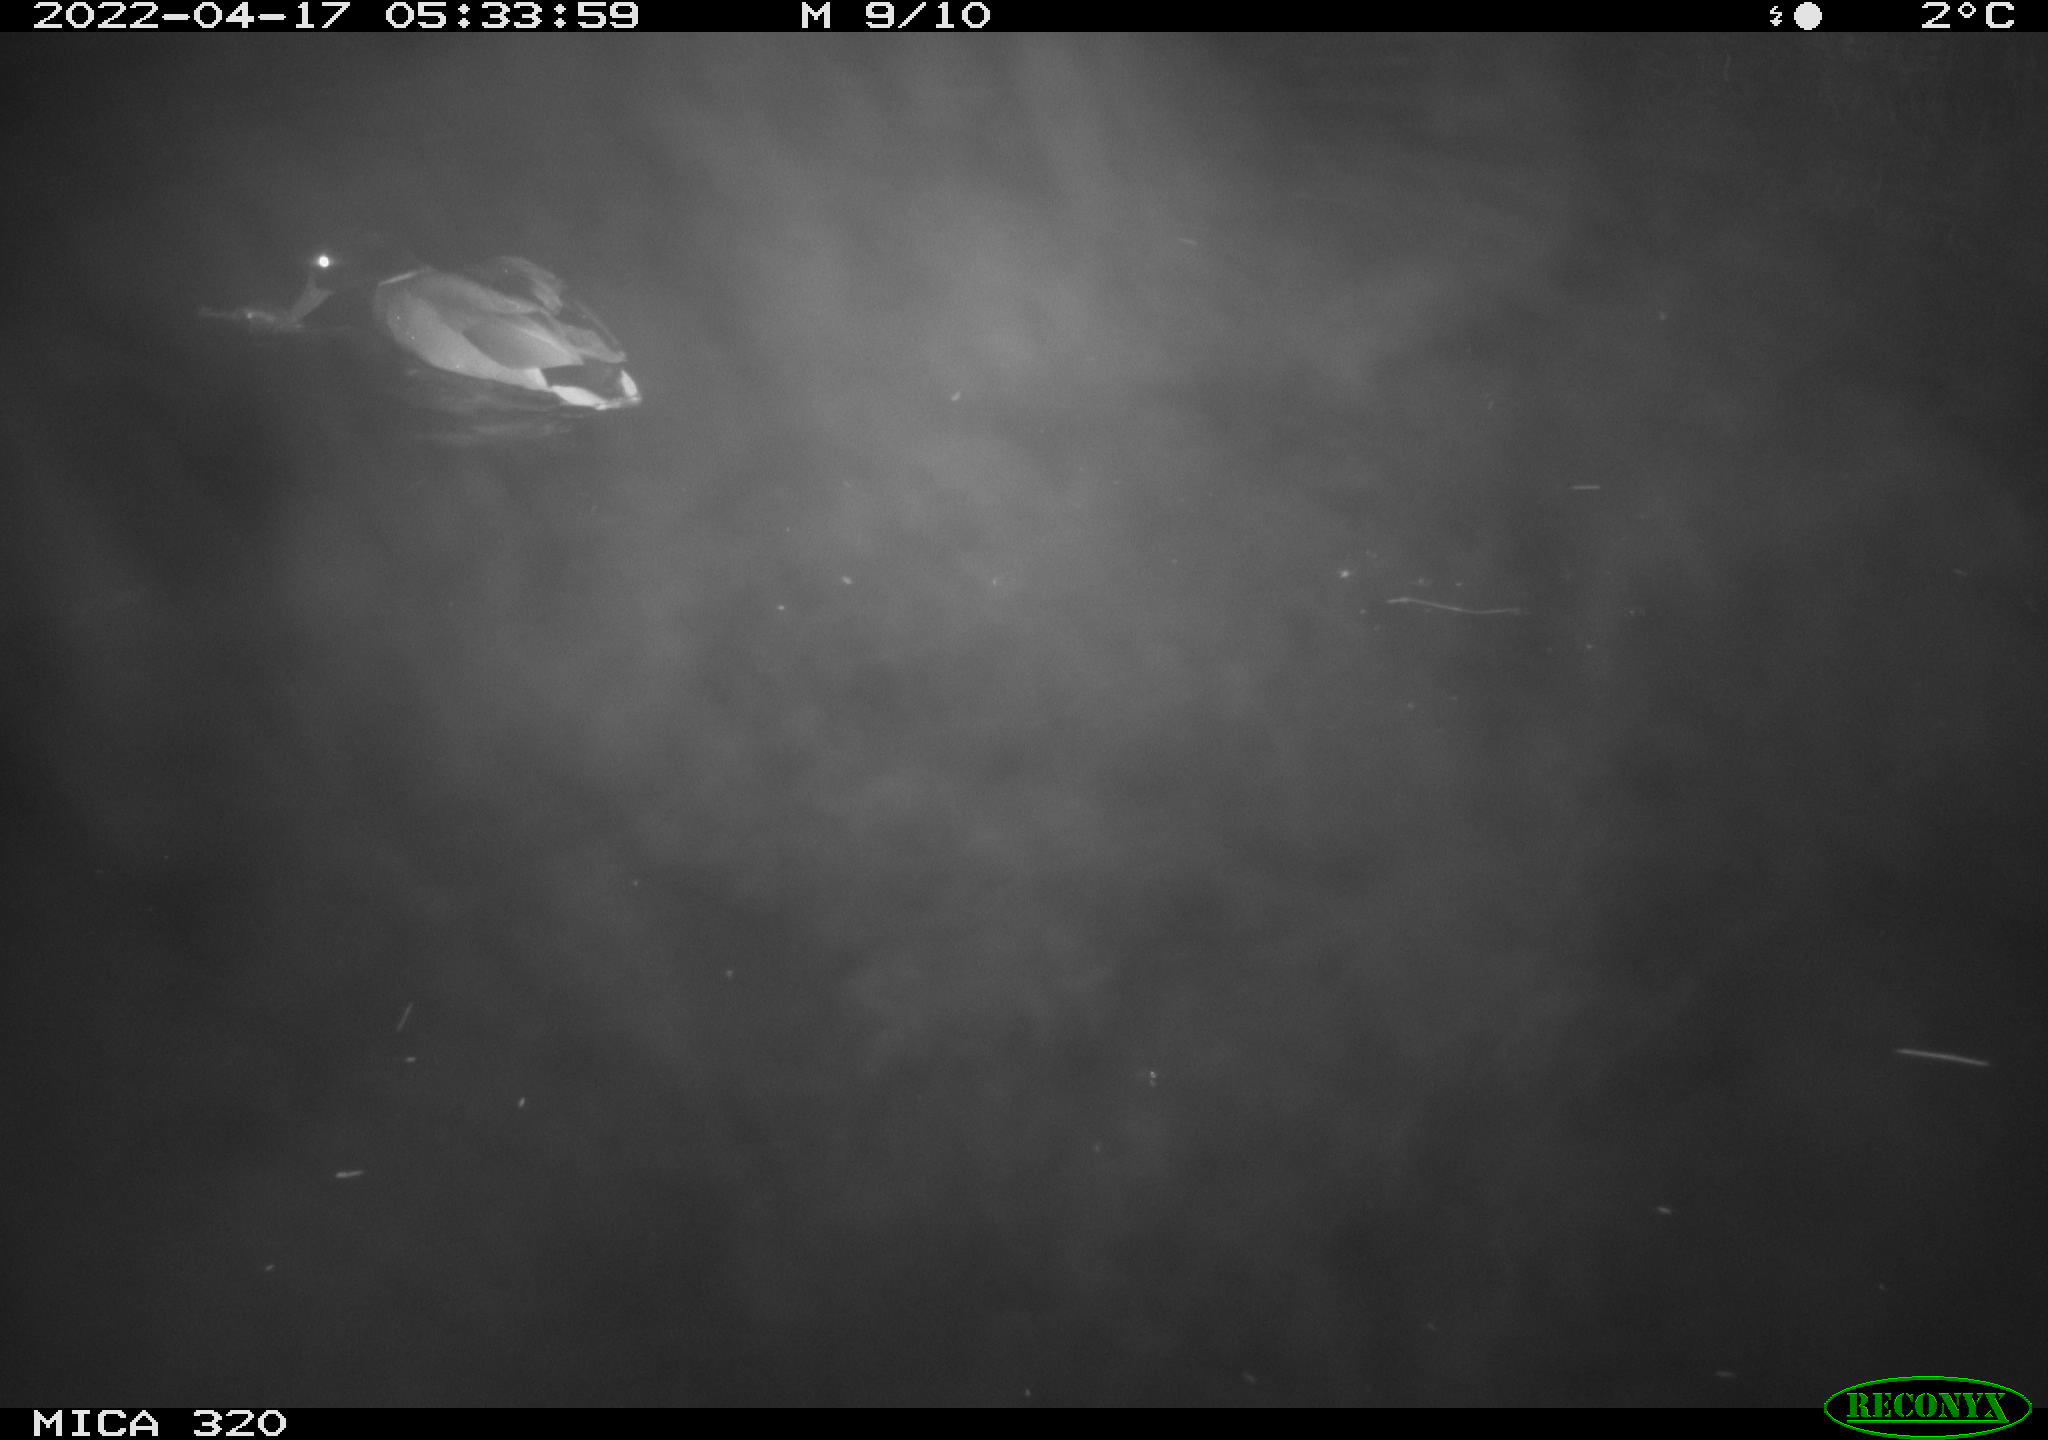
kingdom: Animalia
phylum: Chordata
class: Aves
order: Anseriformes
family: Anatidae
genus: Anas
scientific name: Anas platyrhynchos
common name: Mallard
